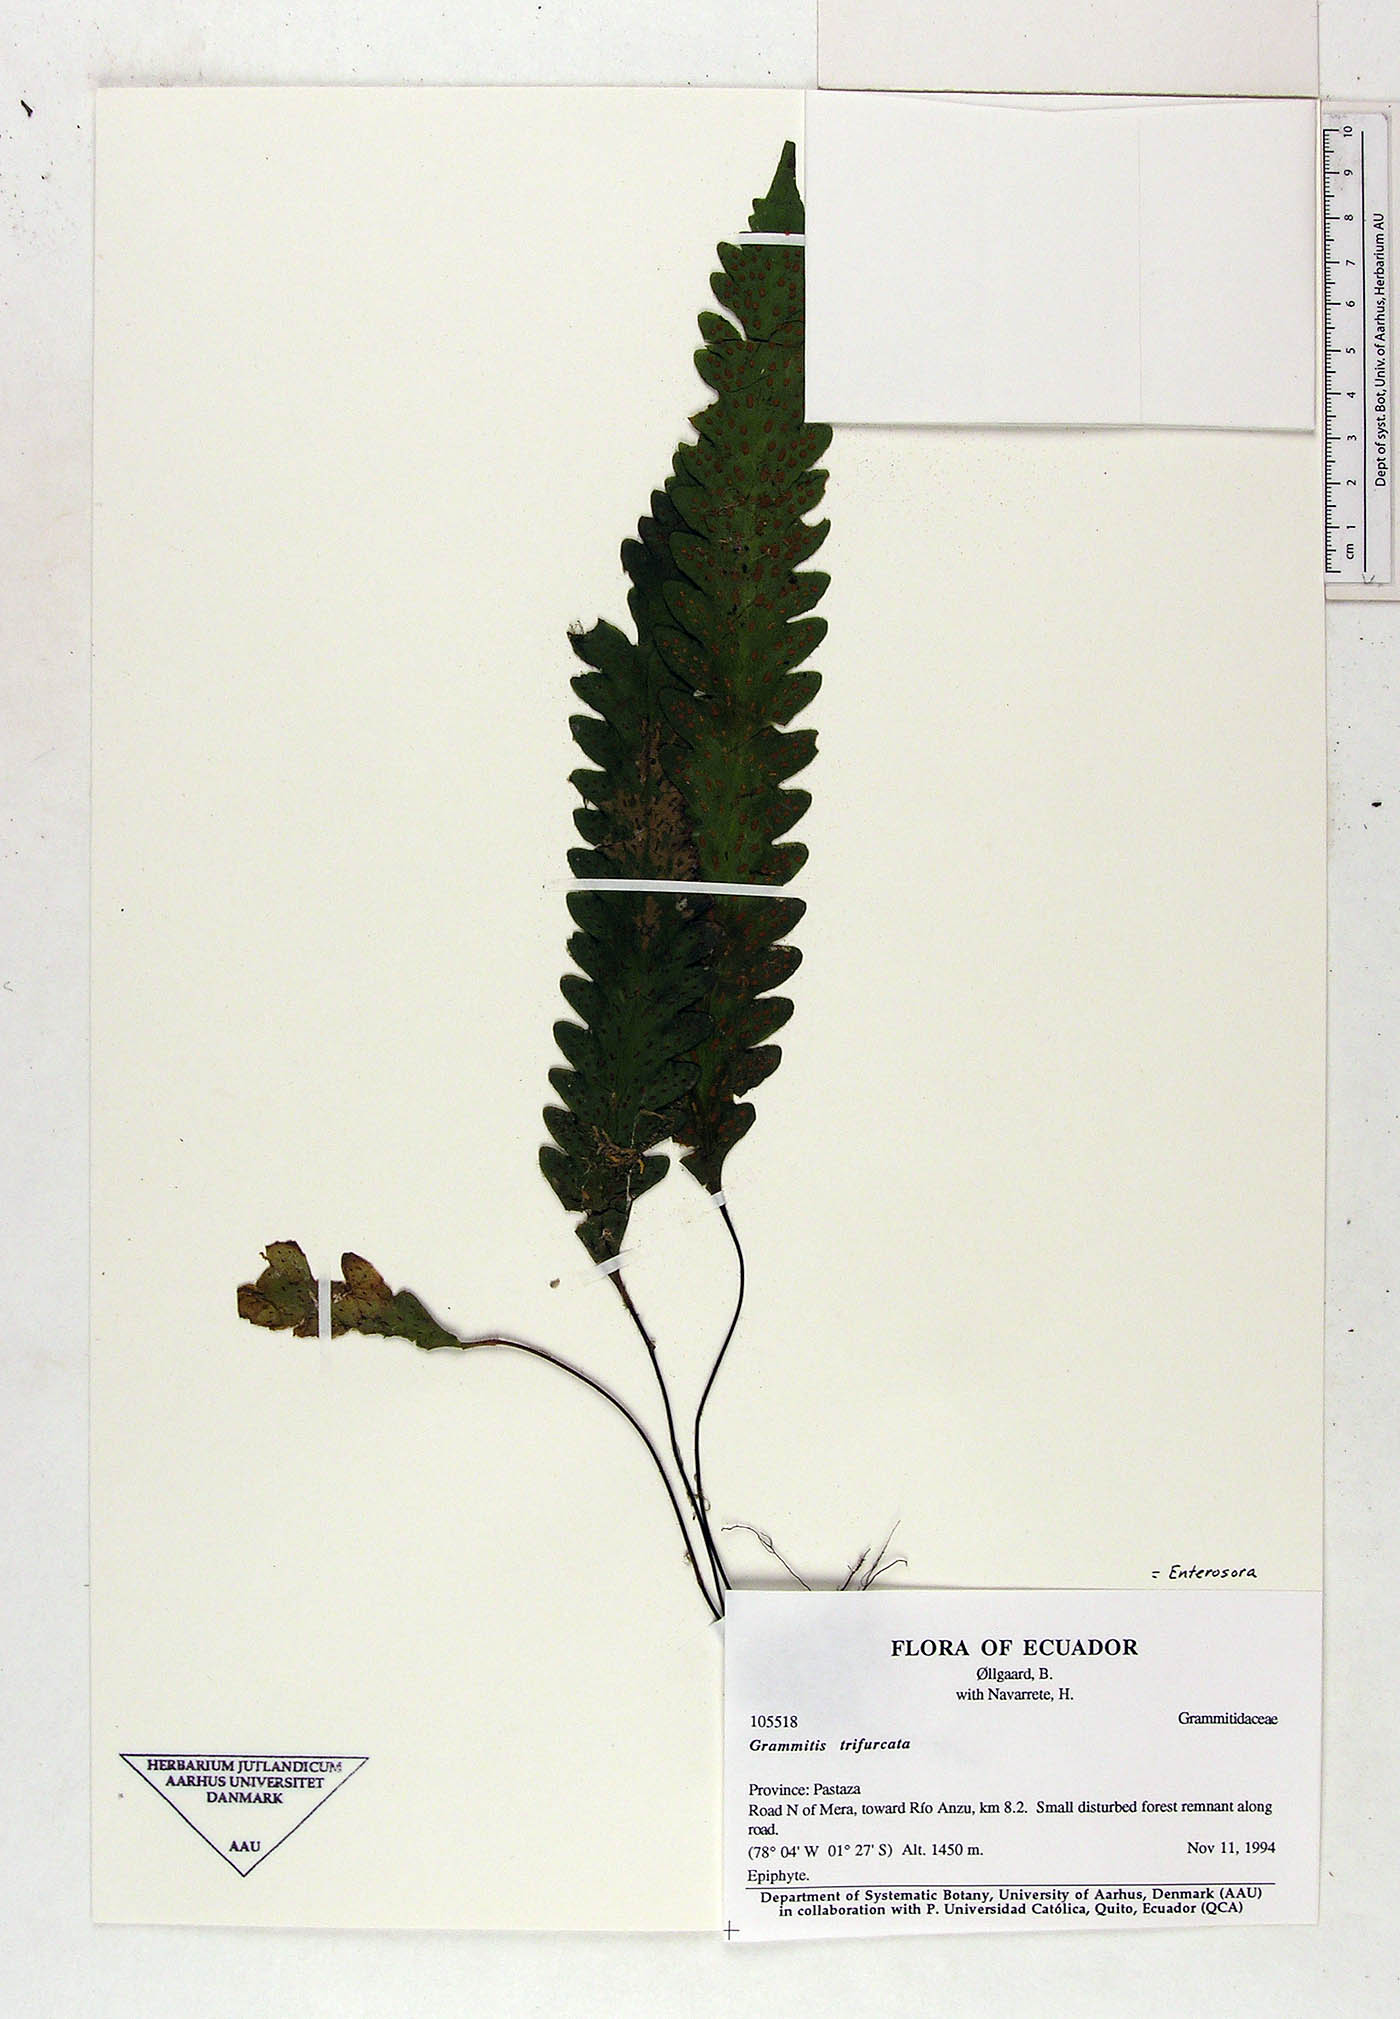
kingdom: Plantae
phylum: Tracheophyta
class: Polypodiopsida
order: Polypodiales
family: Polypodiaceae
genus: Enterosora
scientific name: Enterosora trifurcata
